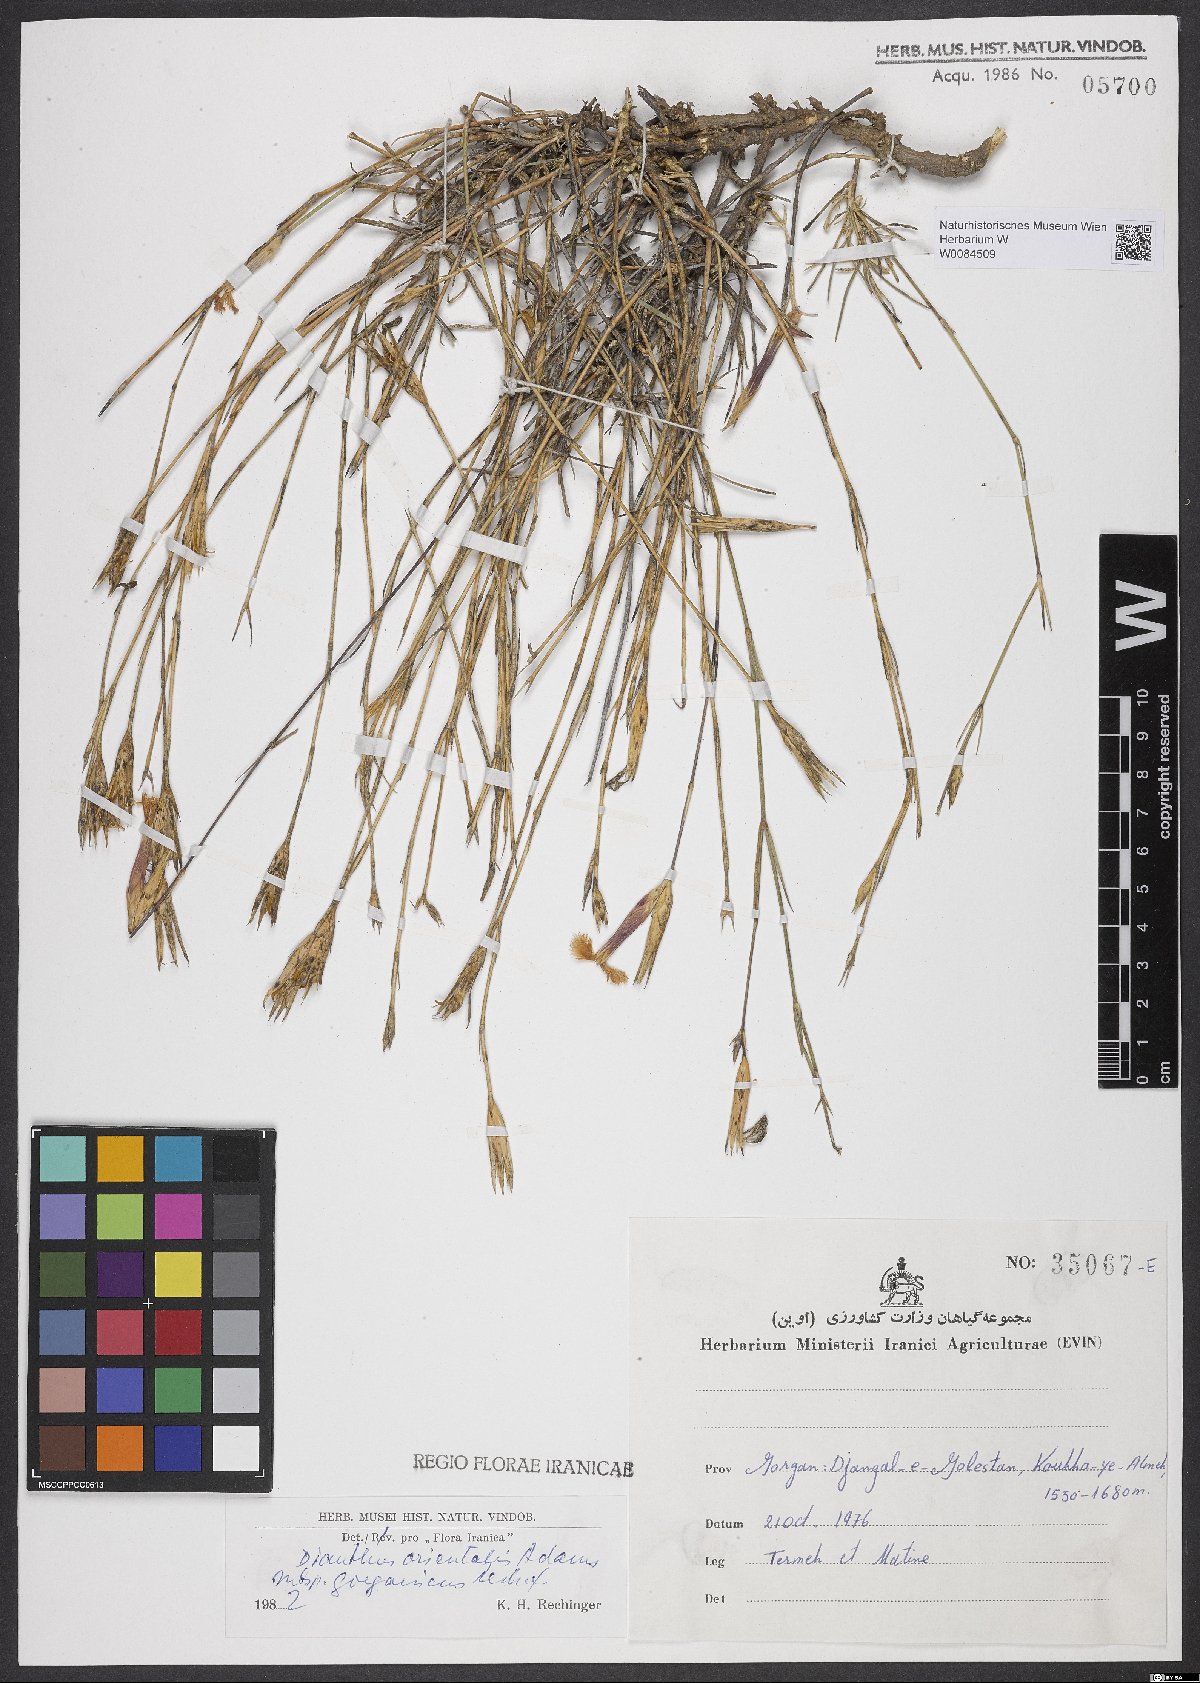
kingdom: Plantae
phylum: Tracheophyta
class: Magnoliopsida
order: Caryophyllales
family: Caryophyllaceae
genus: Dianthus
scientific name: Dianthus orientalis
